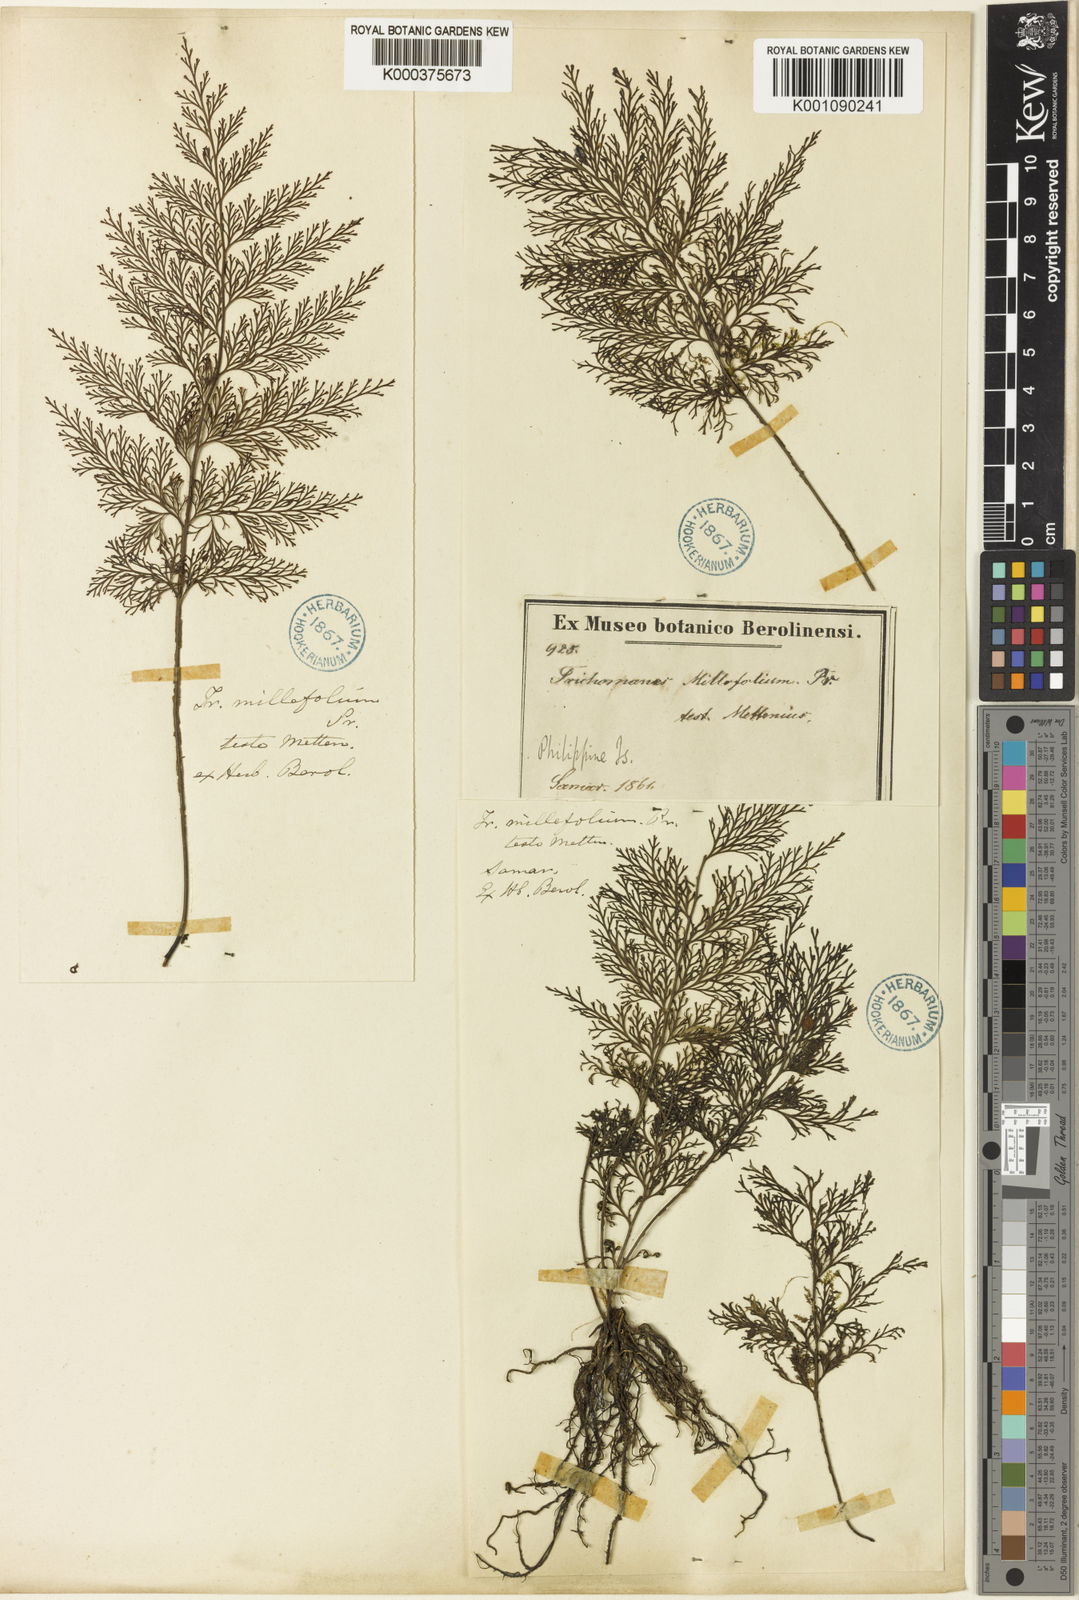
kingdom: Plantae
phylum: Tracheophyta
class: Polypodiopsida
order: Hymenophyllales
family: Hymenophyllaceae
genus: Vandenboschia
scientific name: Vandenboschia maxima
